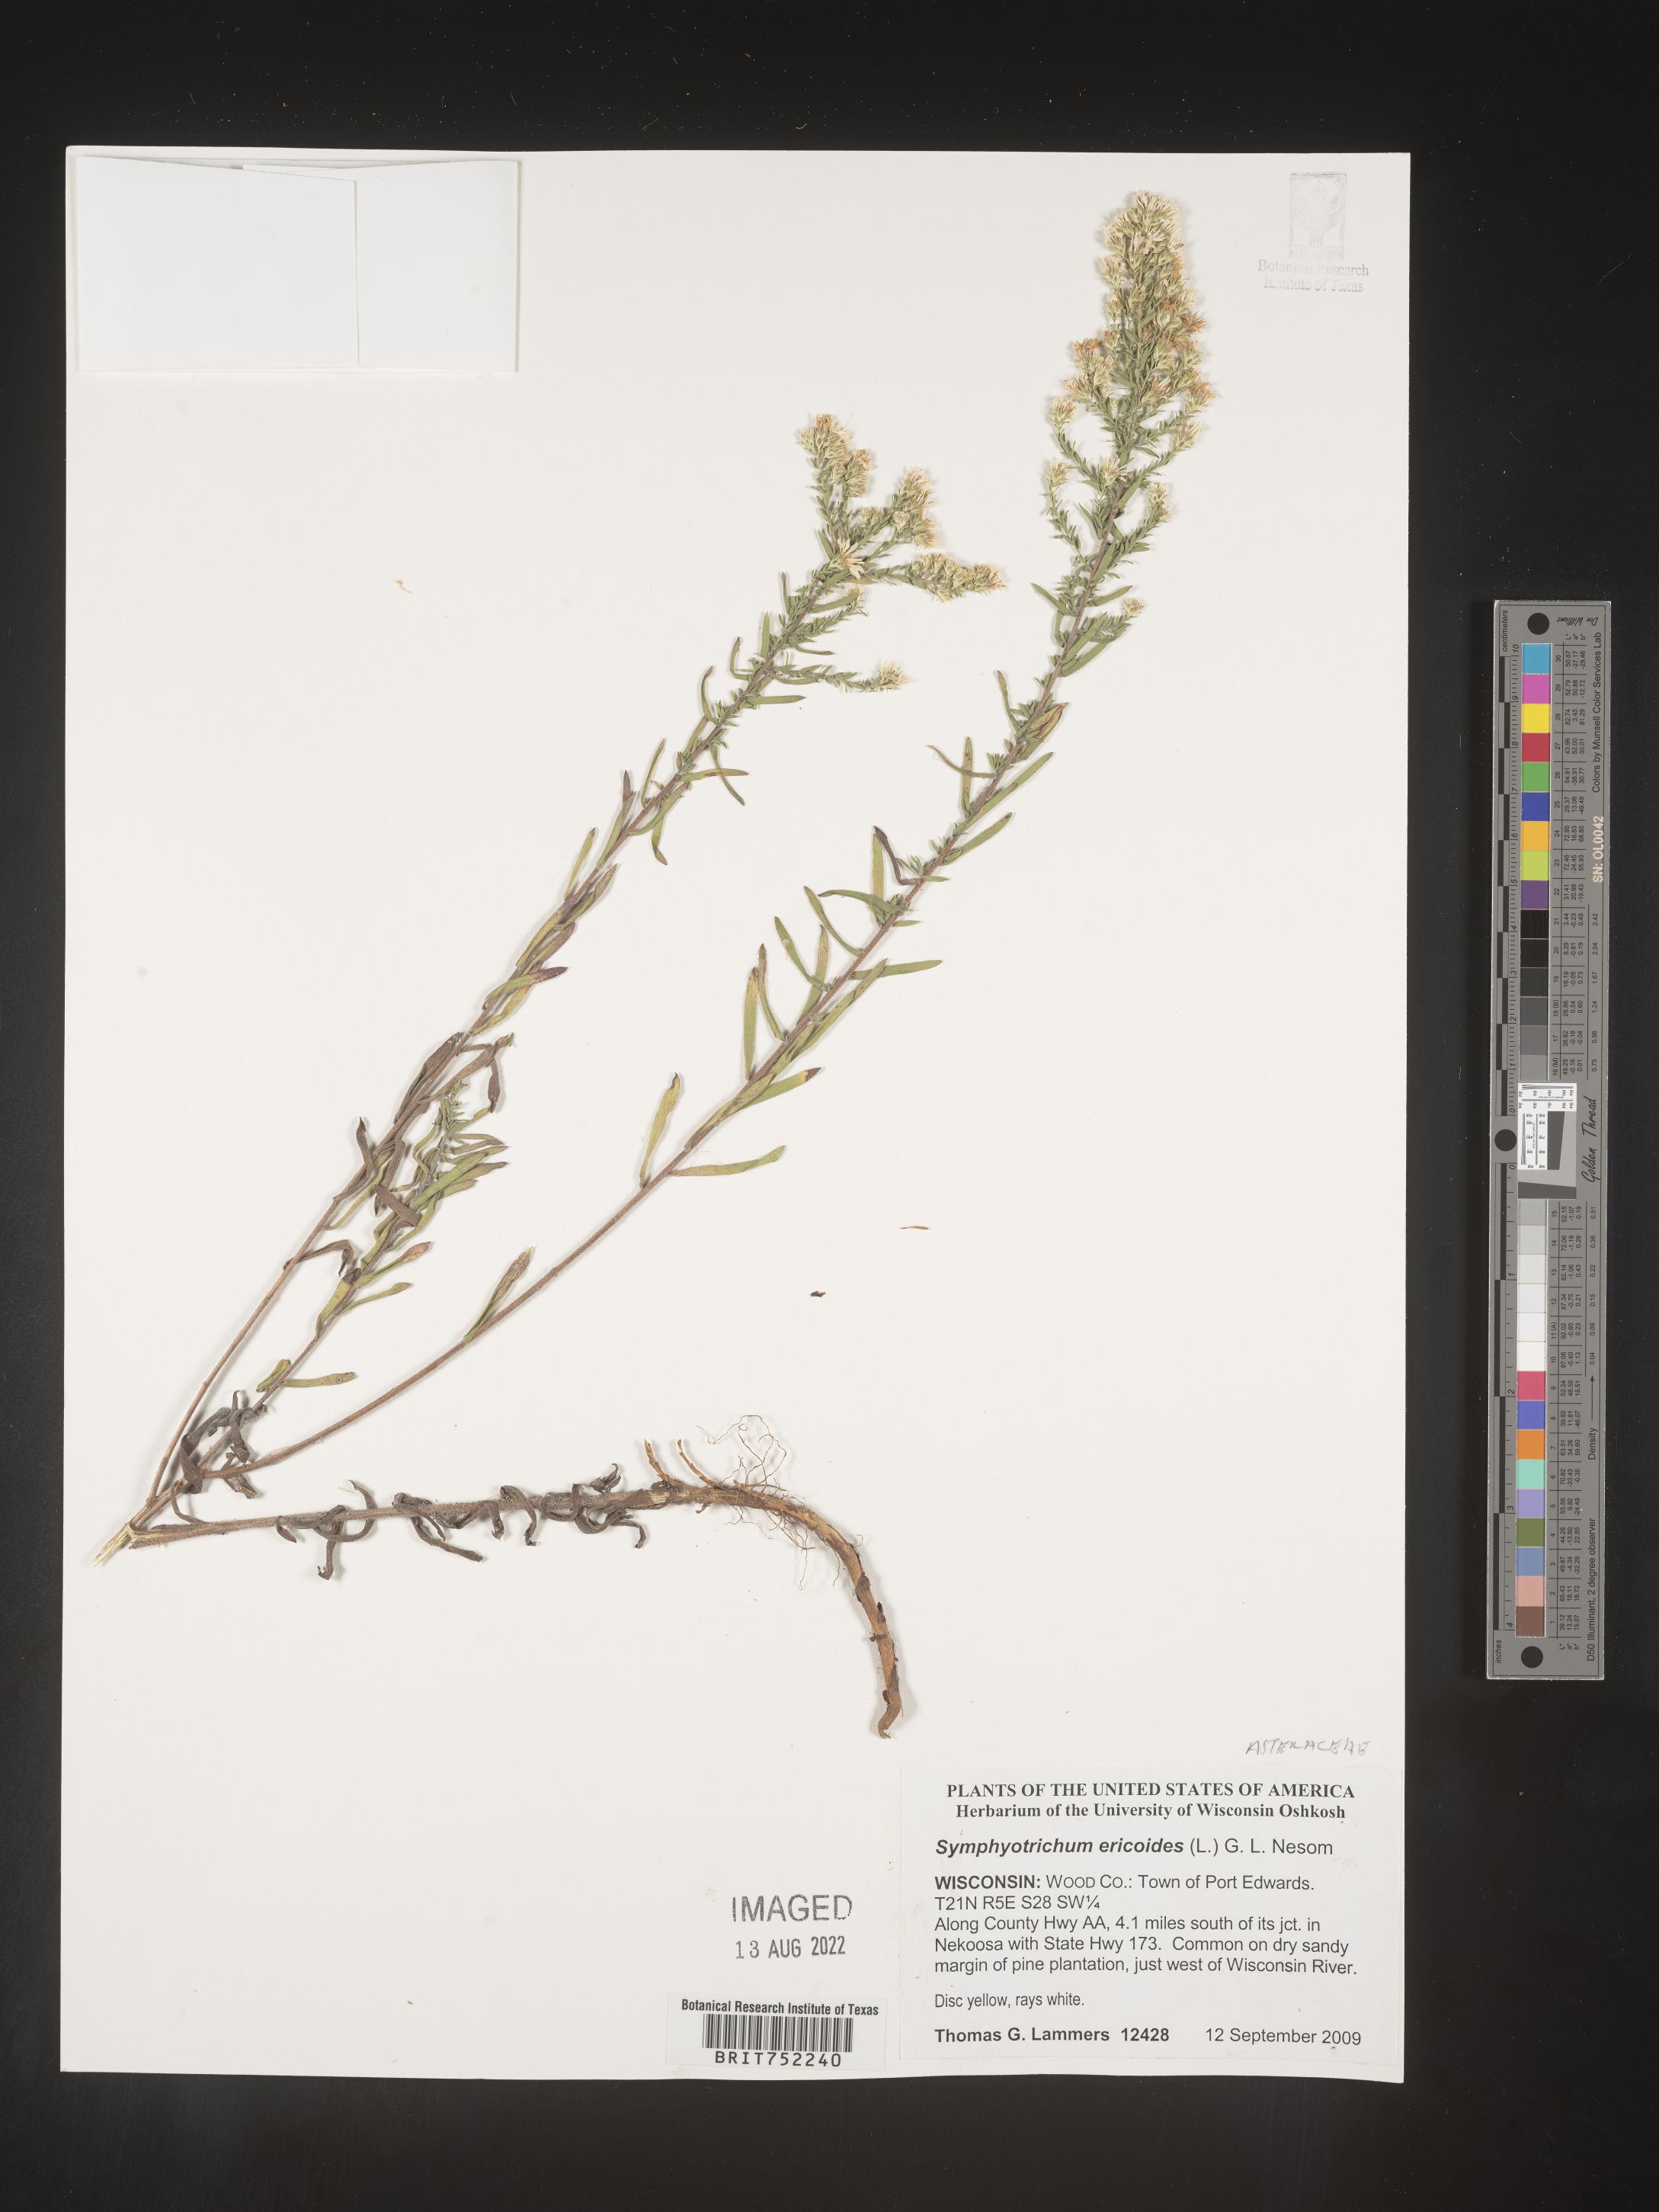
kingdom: Plantae
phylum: Tracheophyta
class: Magnoliopsida
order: Asterales
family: Asteraceae
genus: Symphyotrichum
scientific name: Symphyotrichum ericoides
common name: Heath aster
